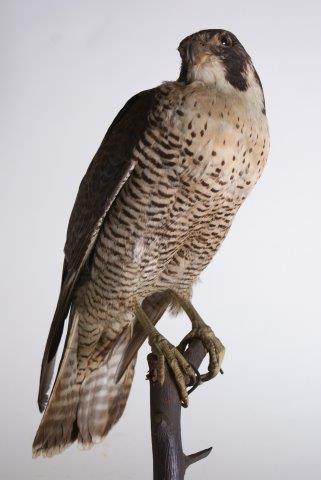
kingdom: Animalia
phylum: Chordata
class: Aves
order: Falconiformes
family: Falconidae
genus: Falco
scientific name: Falco peregrinus
